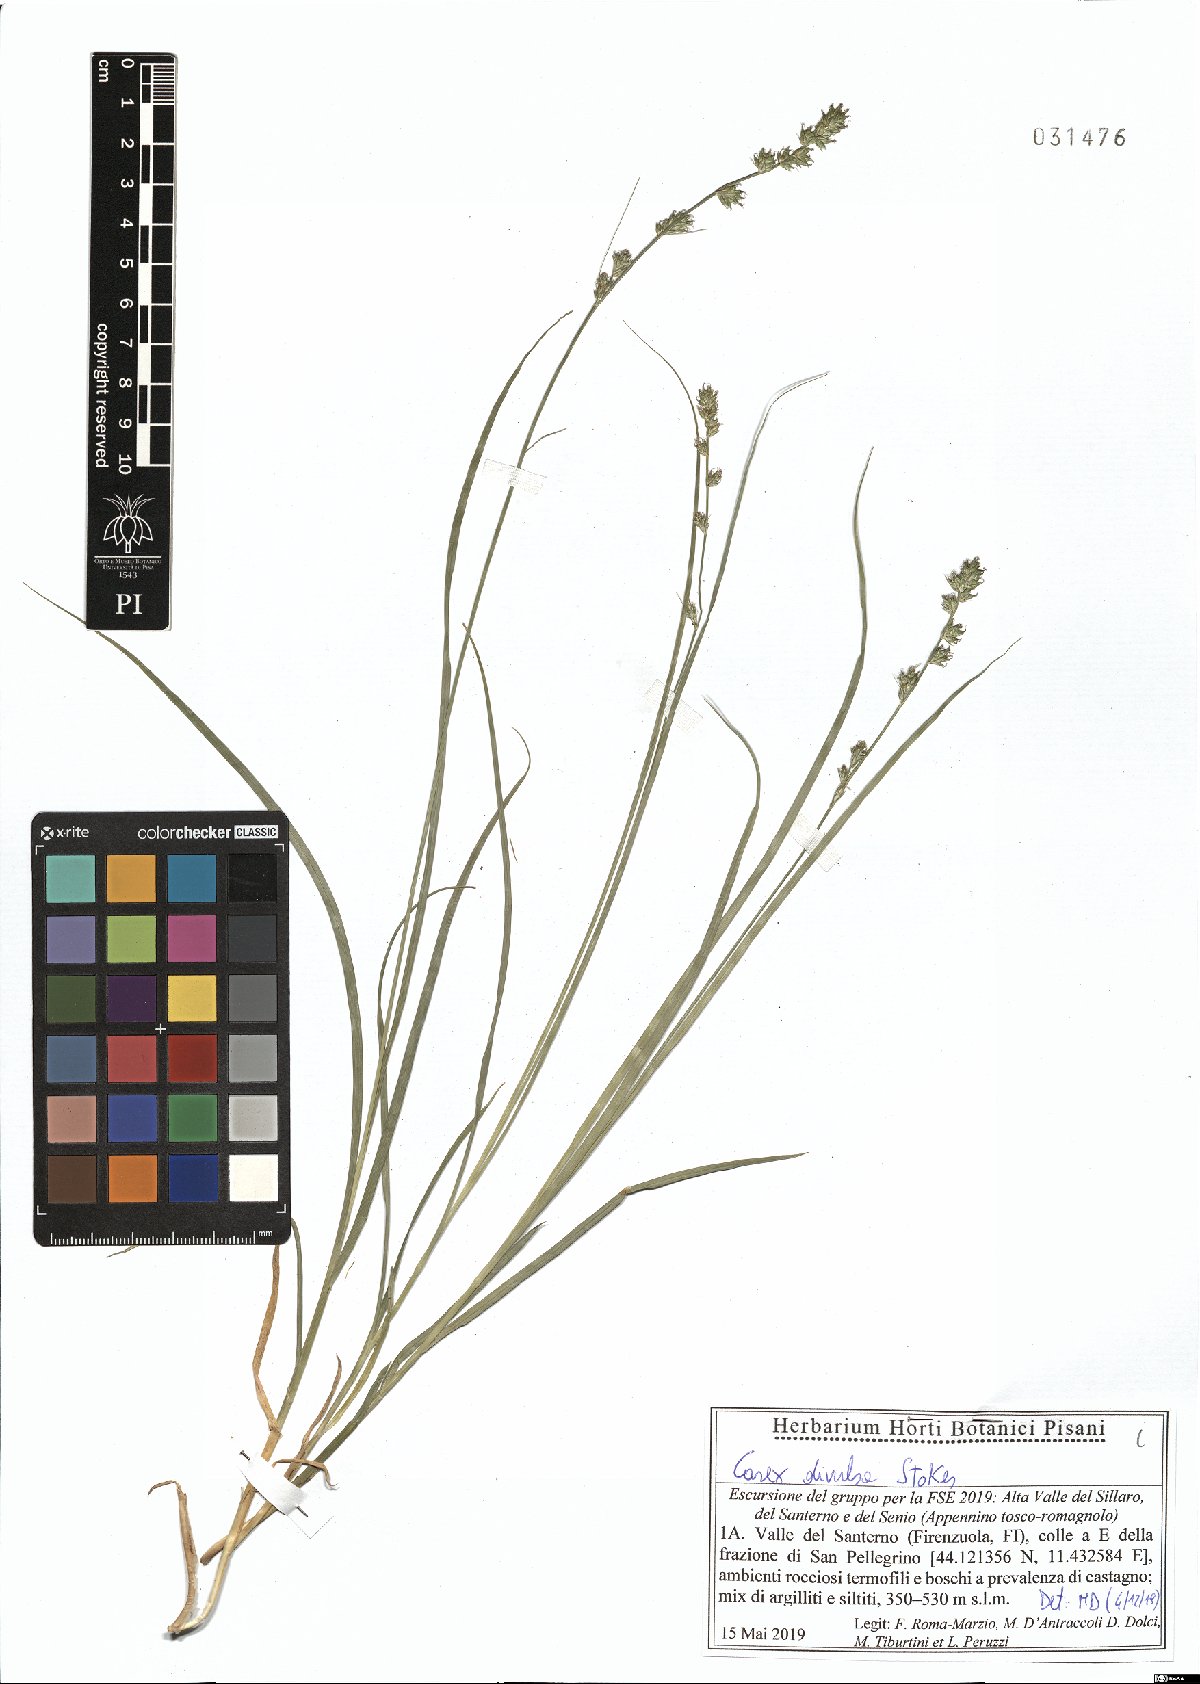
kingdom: Plantae
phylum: Tracheophyta
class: Liliopsida
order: Poales
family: Cyperaceae
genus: Carex
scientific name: Carex divulsa
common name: Grassland sedge
